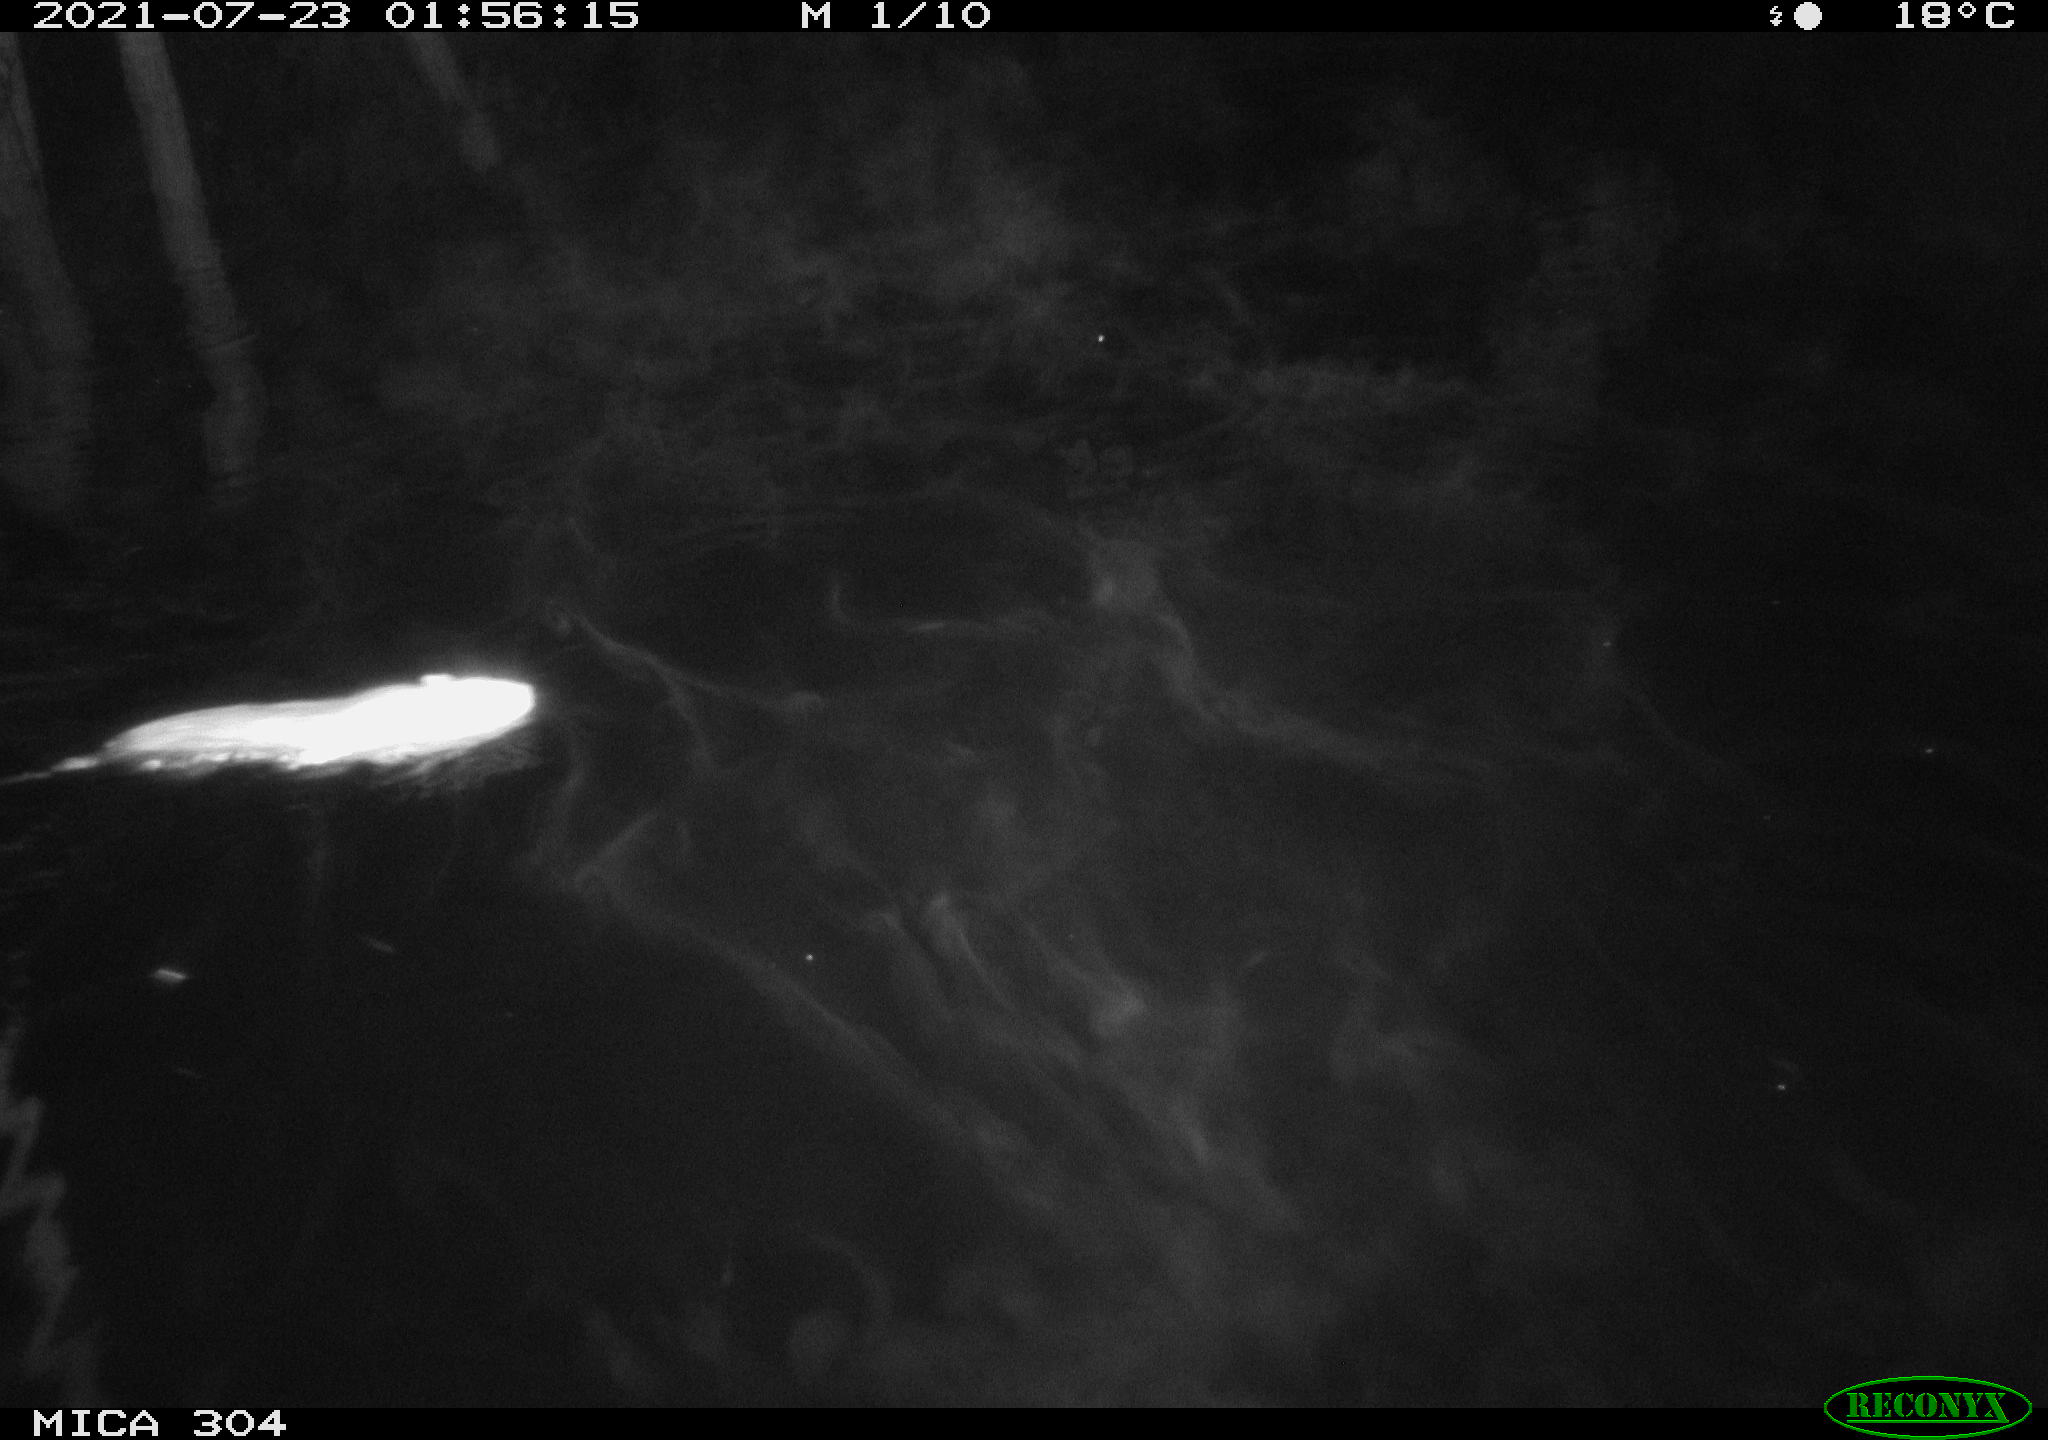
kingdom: Animalia
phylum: Chordata
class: Mammalia
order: Rodentia
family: Muridae
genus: Rattus
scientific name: Rattus norvegicus
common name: Brown rat
